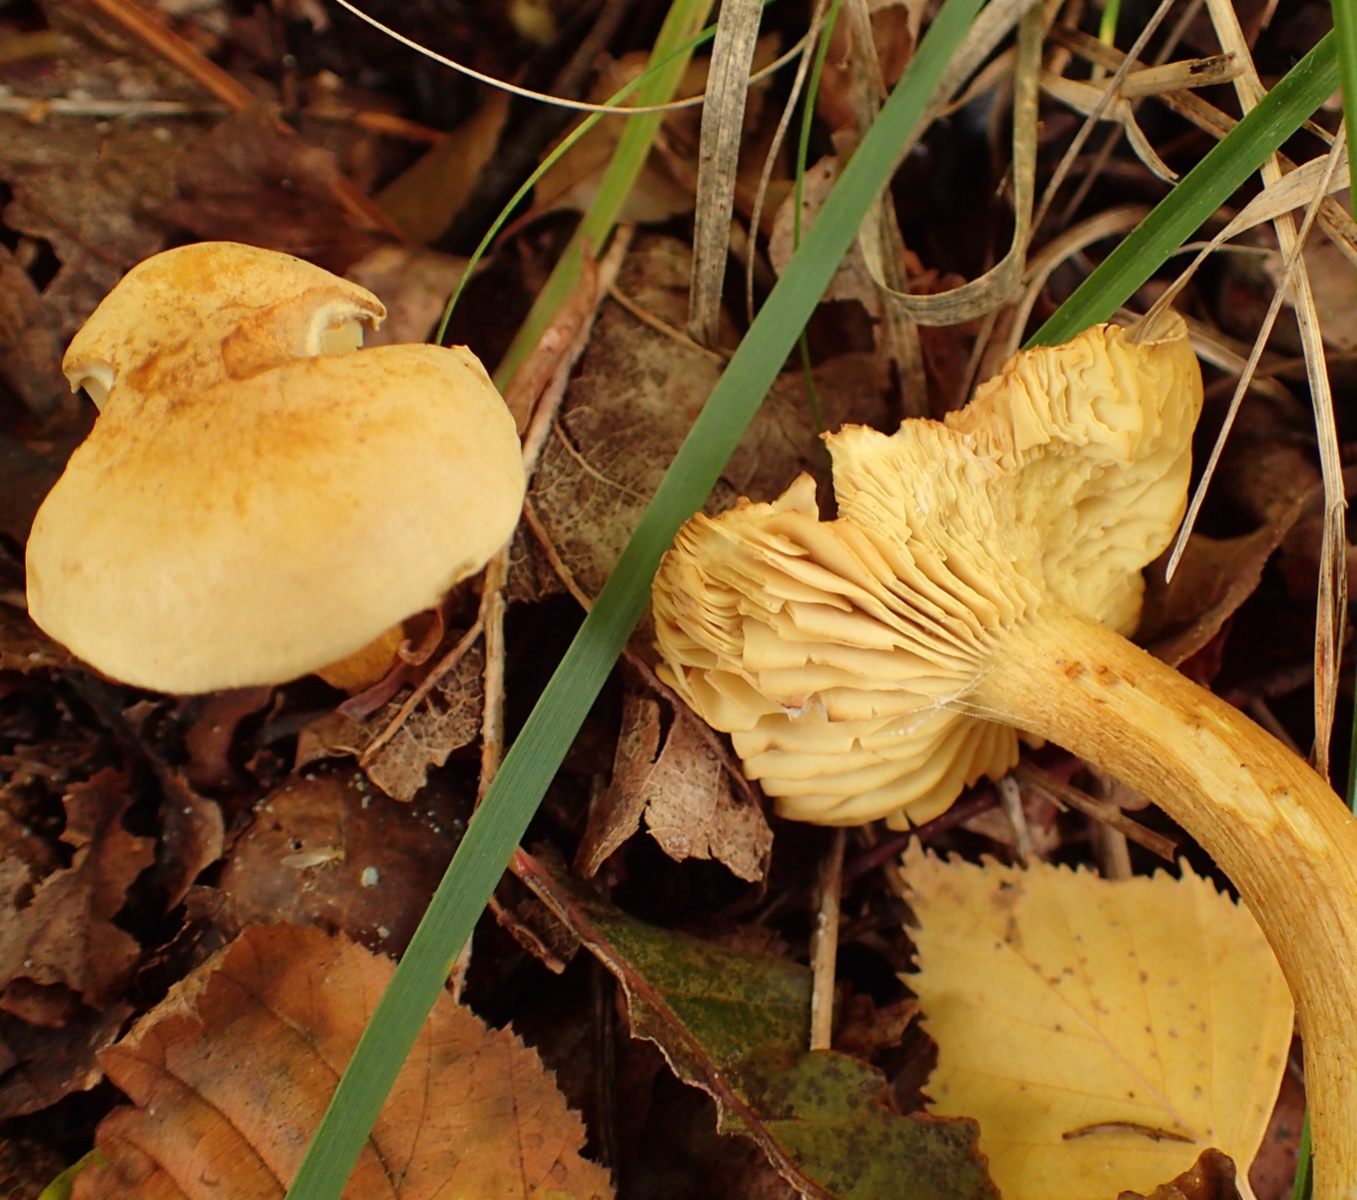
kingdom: Fungi
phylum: Basidiomycota
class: Agaricomycetes
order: Agaricales
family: Tricholomataceae
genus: Tricholoma
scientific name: Tricholoma sulphureum
